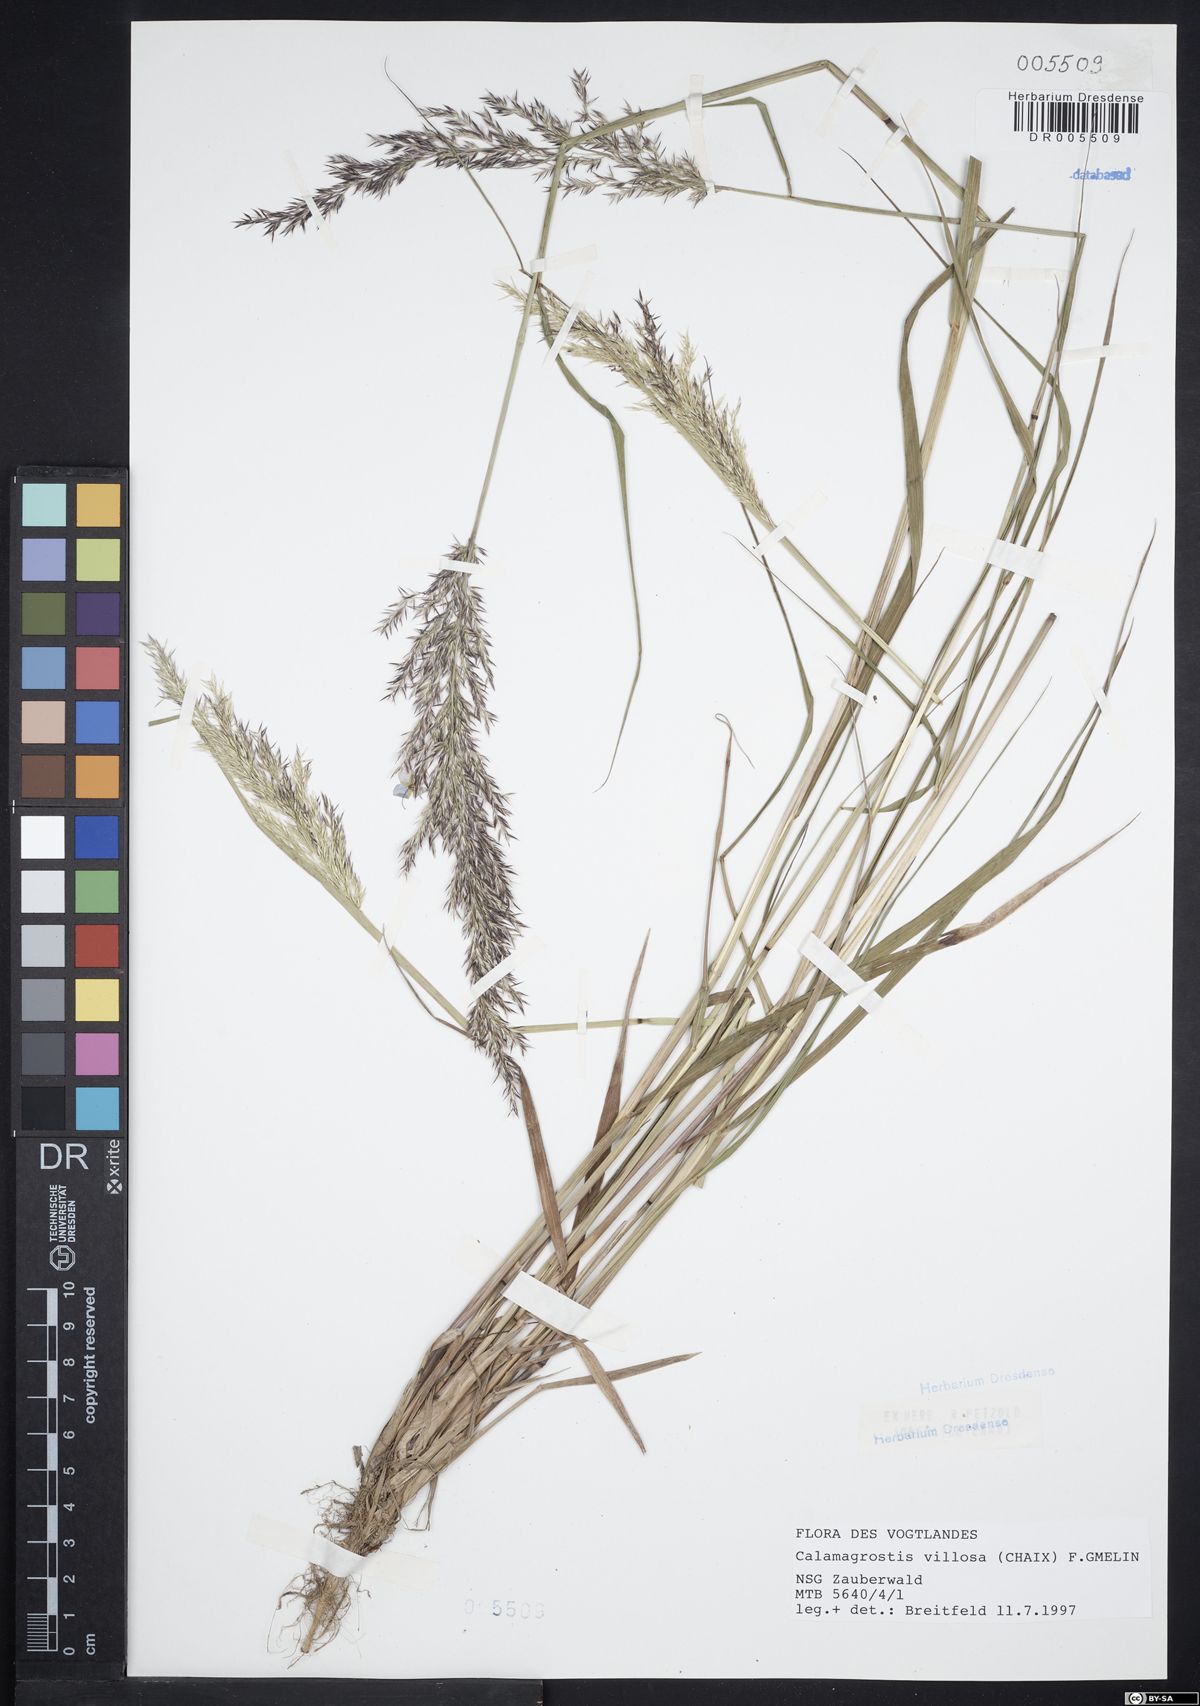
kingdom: Plantae
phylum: Tracheophyta
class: Liliopsida
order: Poales
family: Poaceae
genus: Calamagrostis
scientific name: Calamagrostis villosa
